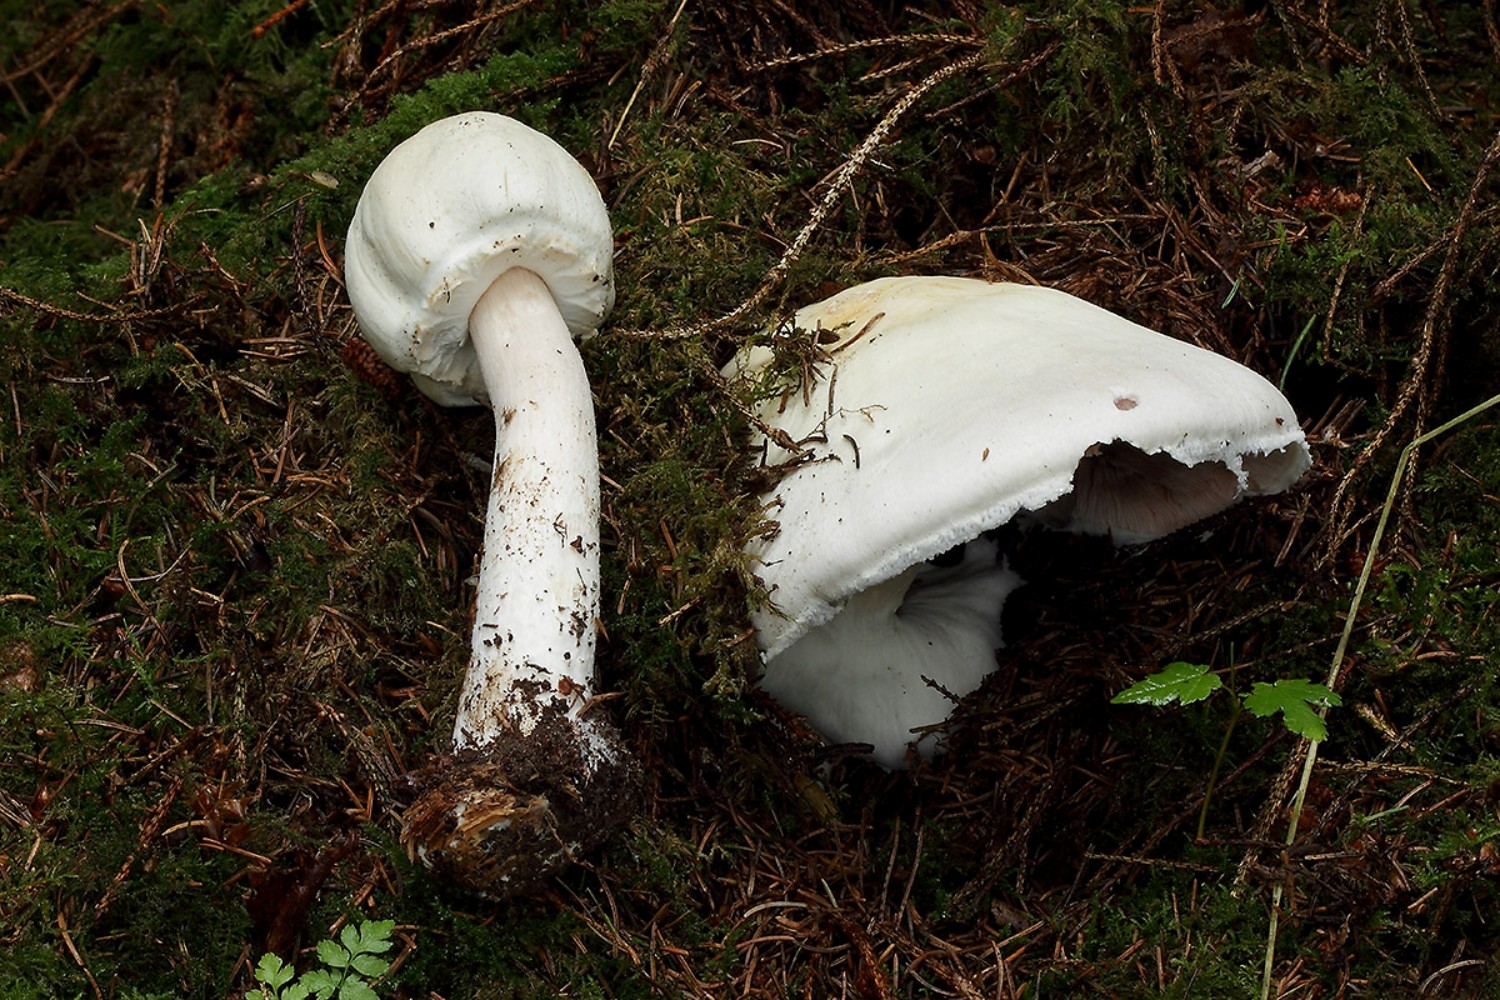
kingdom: Fungi
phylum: Basidiomycota
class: Agaricomycetes
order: Agaricales
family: Agaricaceae
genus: Agaricus
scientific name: Agaricus sylvicola
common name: skiveknoldet champignon
